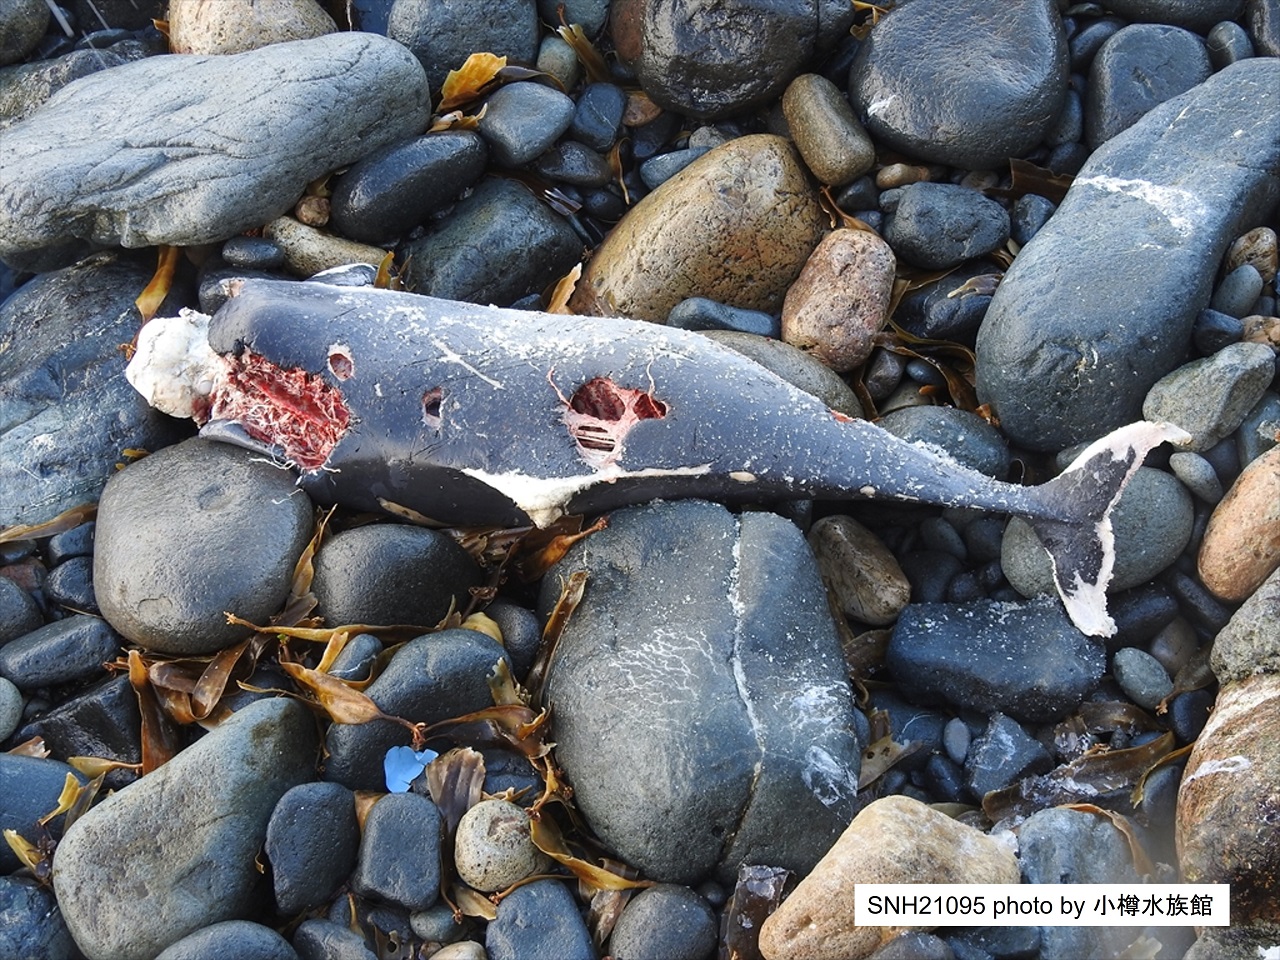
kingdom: Animalia
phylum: Chordata
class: Mammalia
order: Cetacea
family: Phocoenidae
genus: Phocoena
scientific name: Phocoena phocoena
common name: Harbour porpoise
